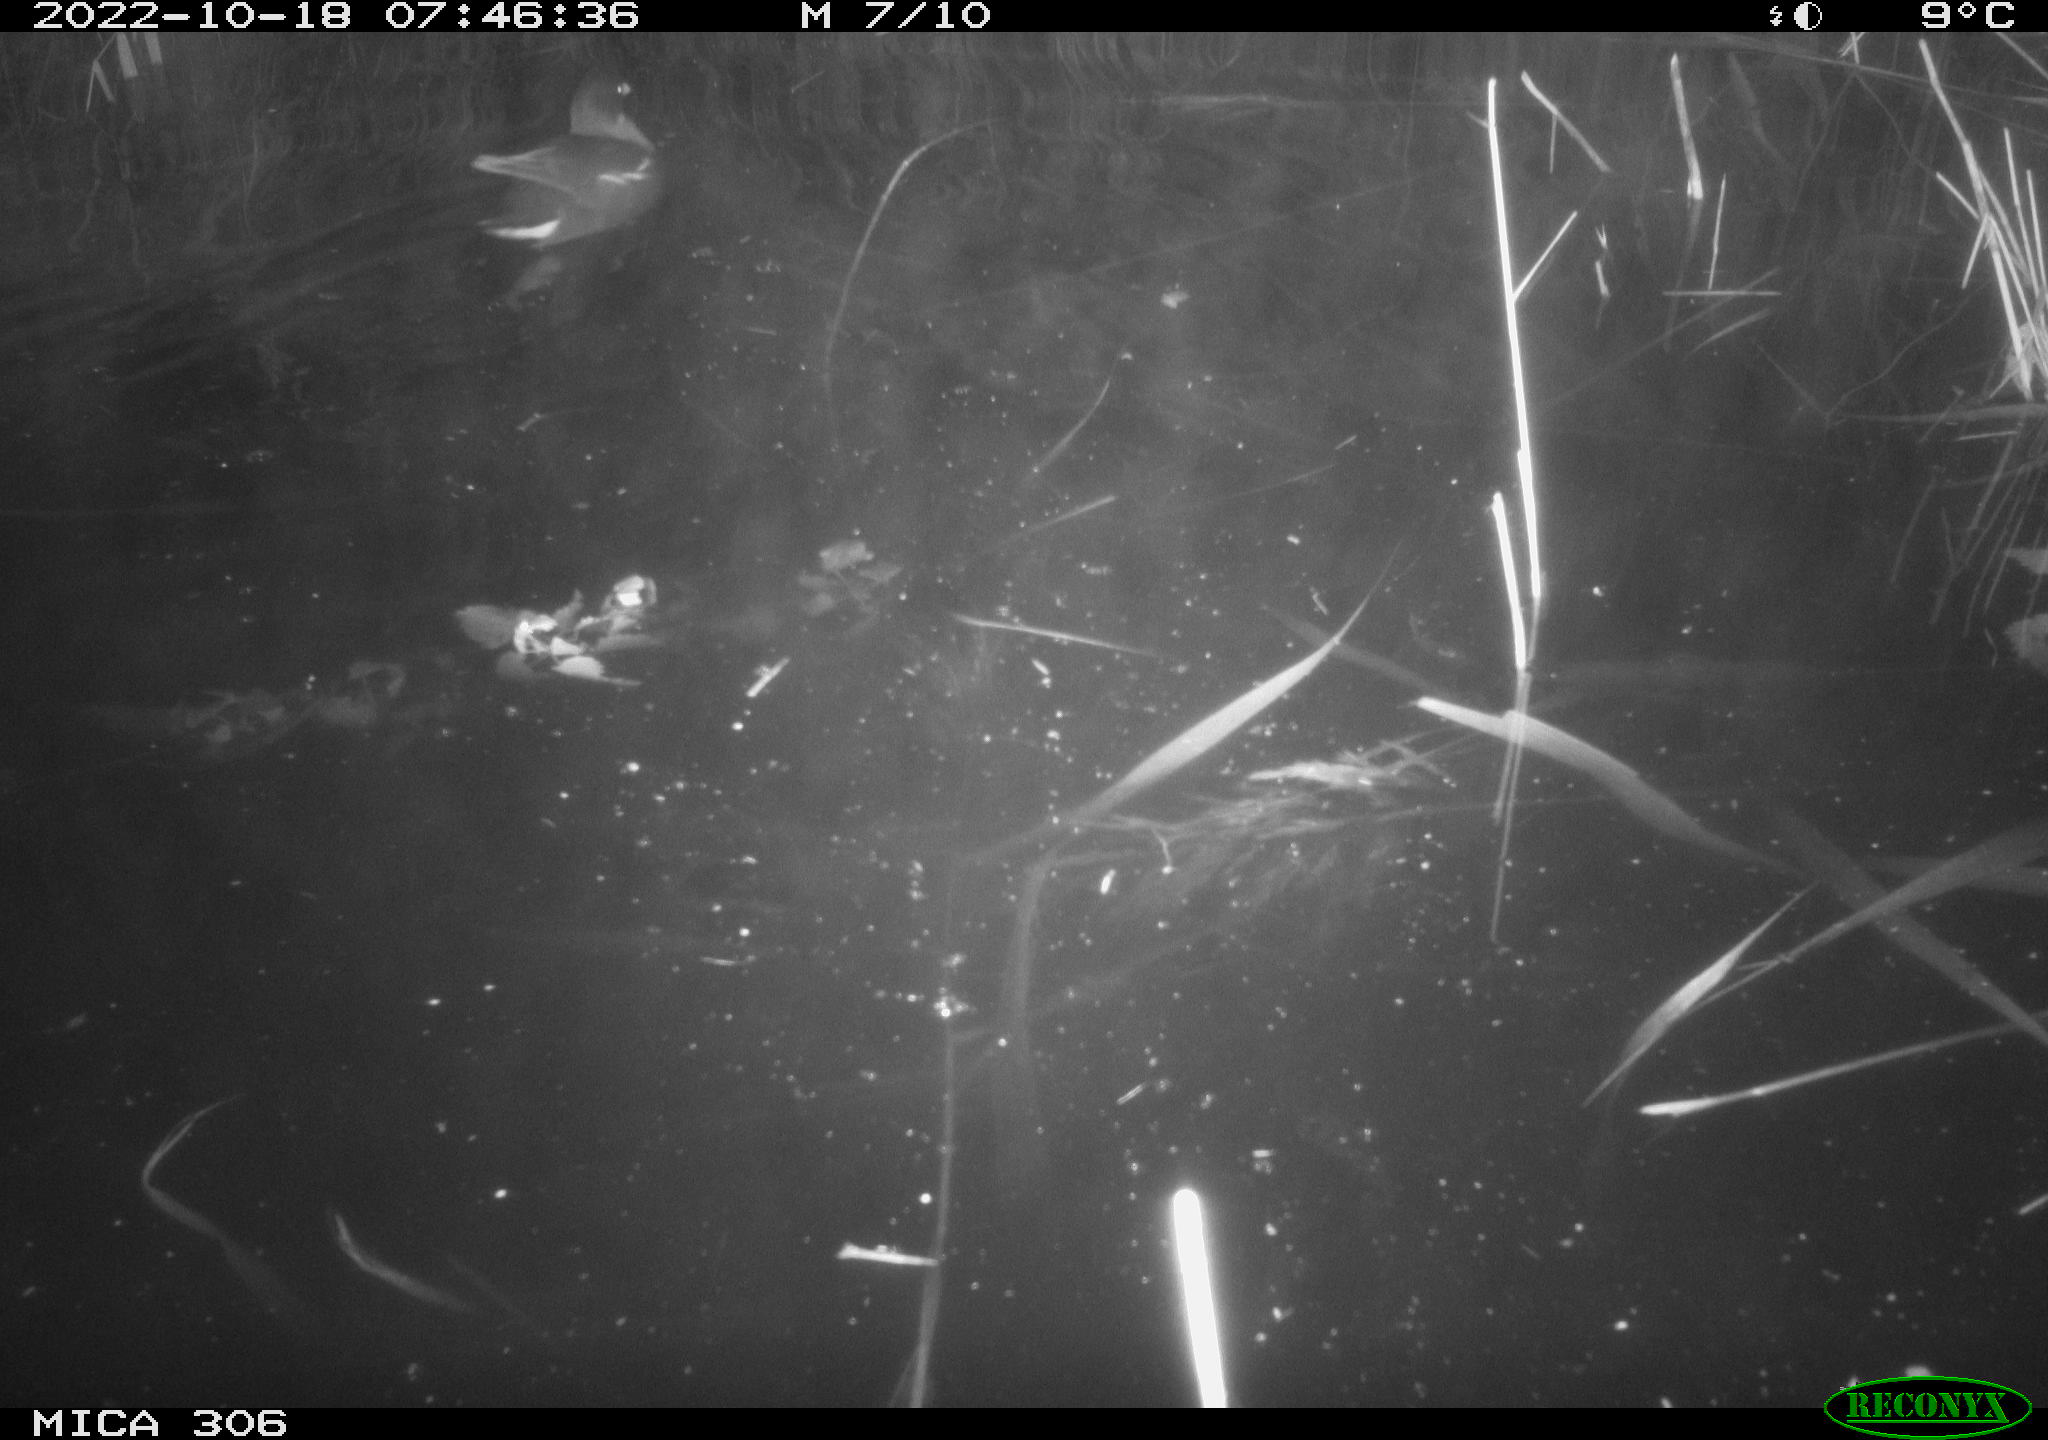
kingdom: Animalia
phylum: Chordata
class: Aves
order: Gruiformes
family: Rallidae
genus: Gallinula
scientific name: Gallinula chloropus
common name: Common moorhen
